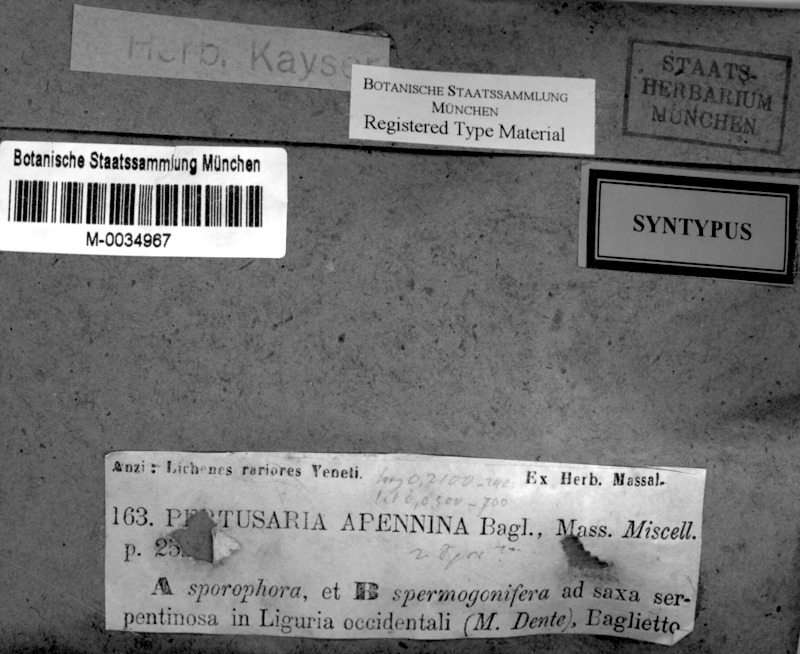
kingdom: Fungi
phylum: Ascomycota
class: Lecanoromycetes
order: Pertusariales
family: Pertusariaceae
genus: Pertusaria
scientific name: Pertusaria apennina
